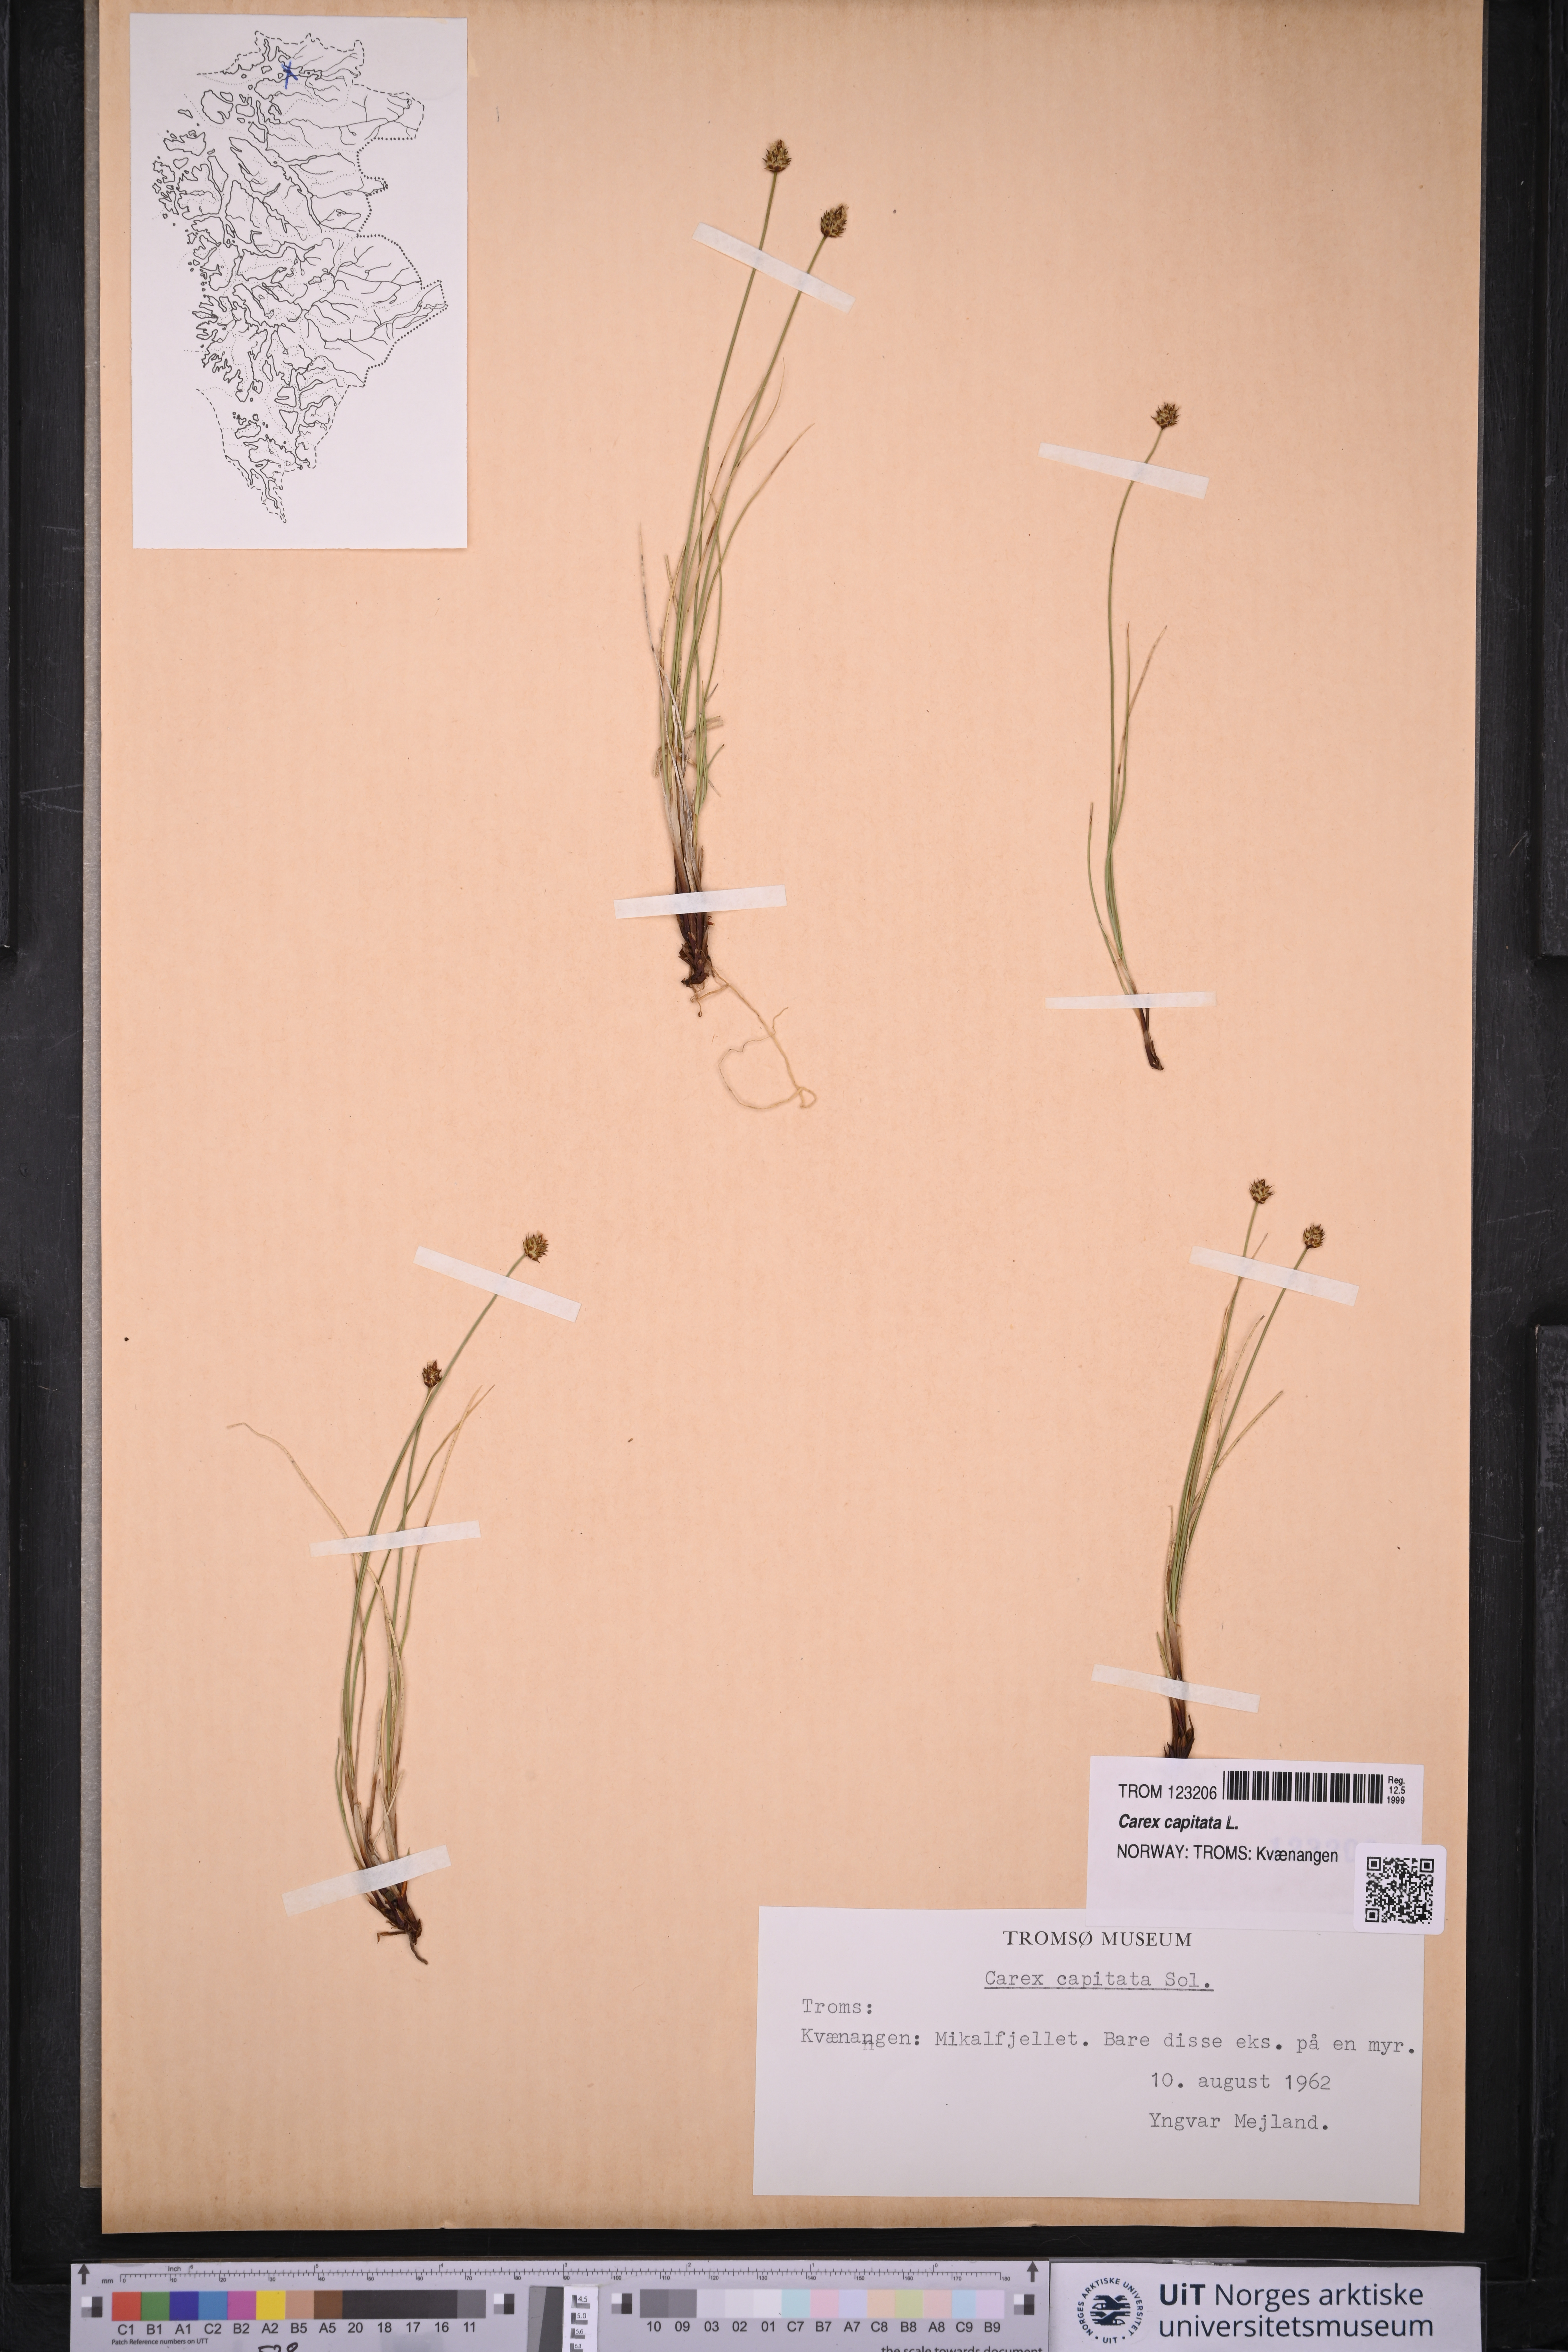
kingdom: Plantae
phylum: Tracheophyta
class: Liliopsida
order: Poales
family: Cyperaceae
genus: Carex
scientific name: Carex capitata
